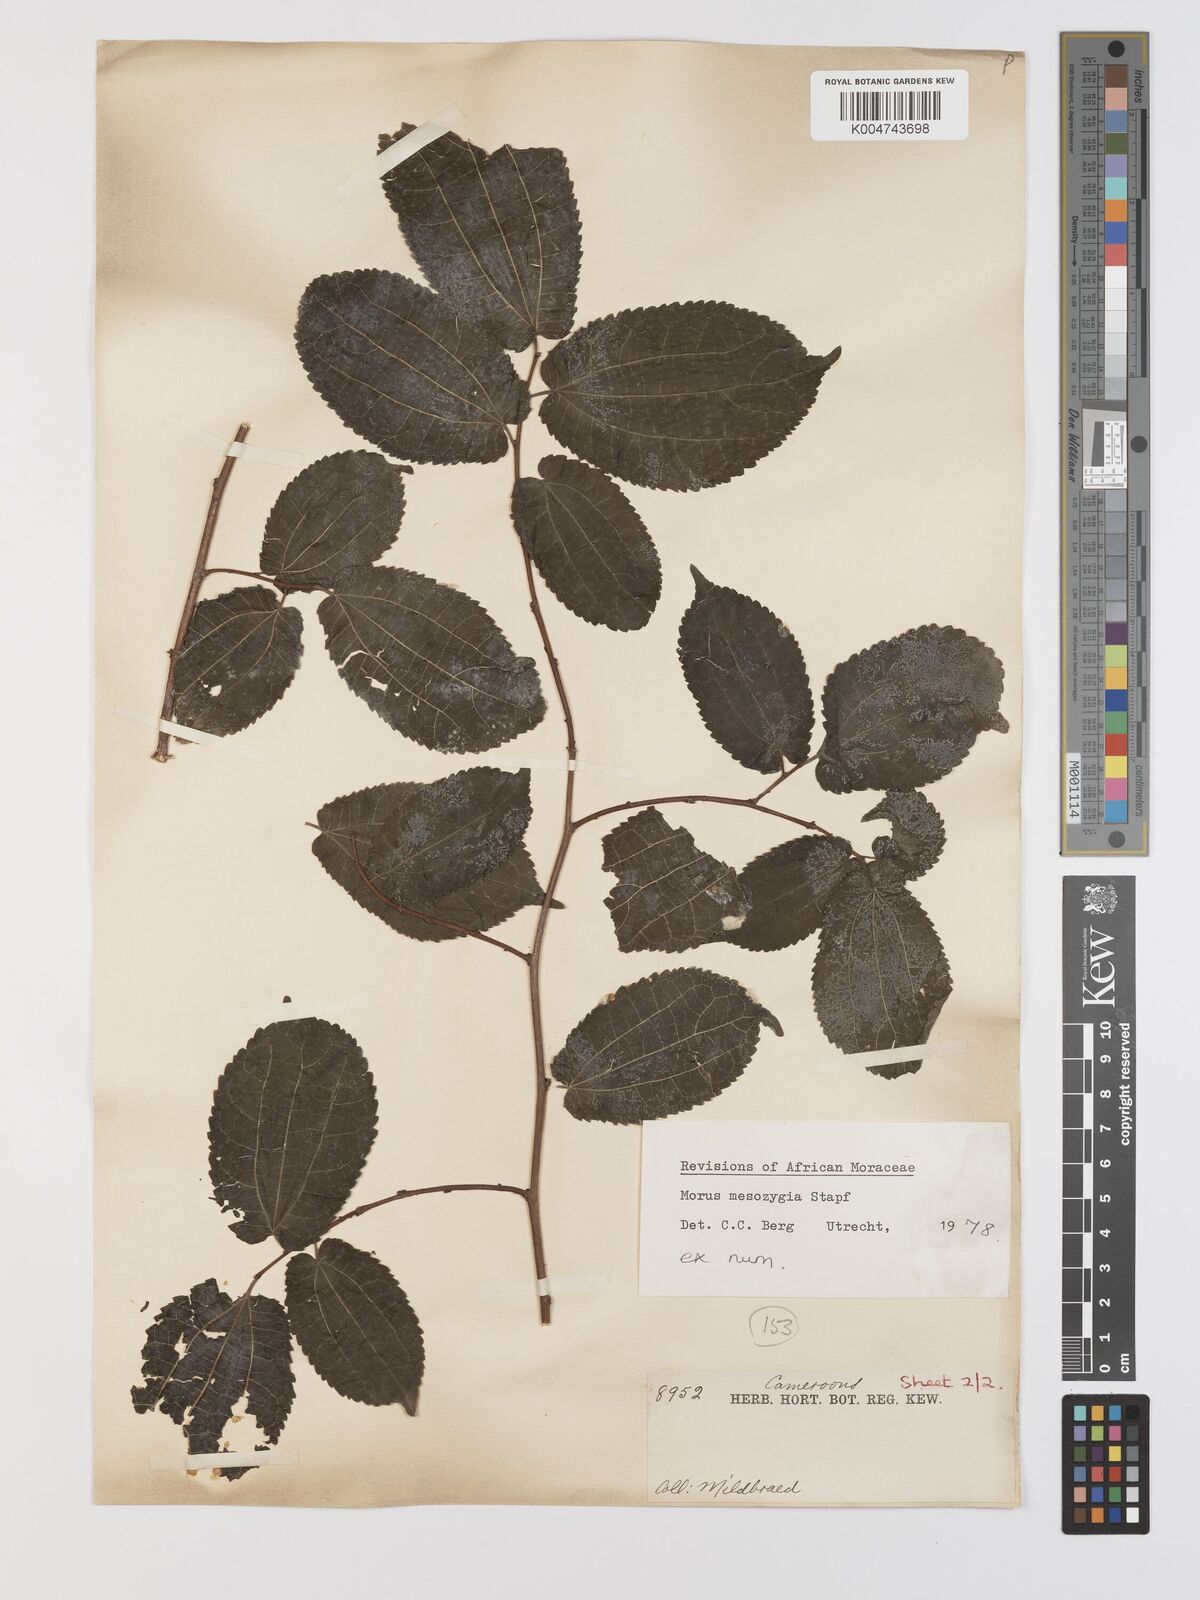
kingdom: Plantae
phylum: Tracheophyta
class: Magnoliopsida
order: Rosales
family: Moraceae
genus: Afromorus
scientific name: Afromorus mesozygia
